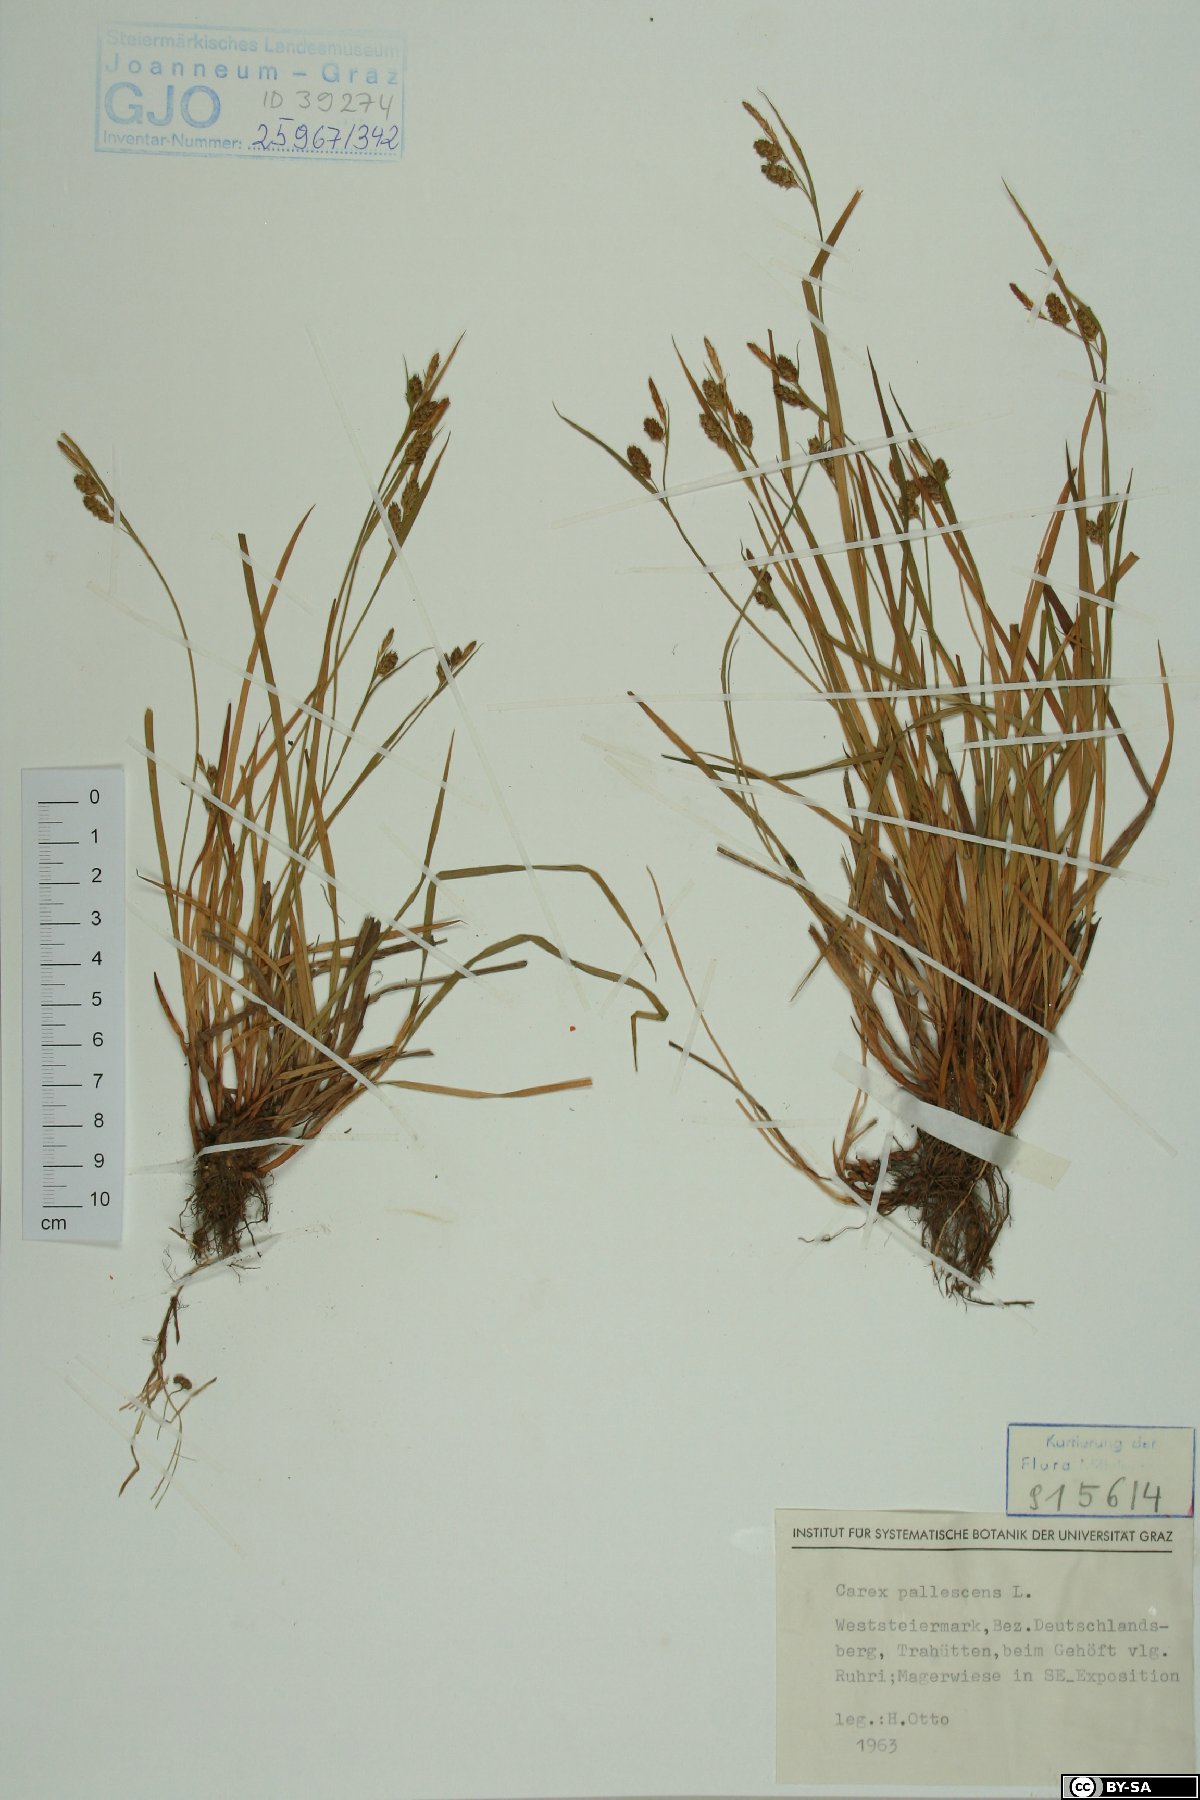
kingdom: Plantae
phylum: Tracheophyta
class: Liliopsida
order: Poales
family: Cyperaceae
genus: Carex
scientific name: Carex pallescens
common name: Pale sedge
